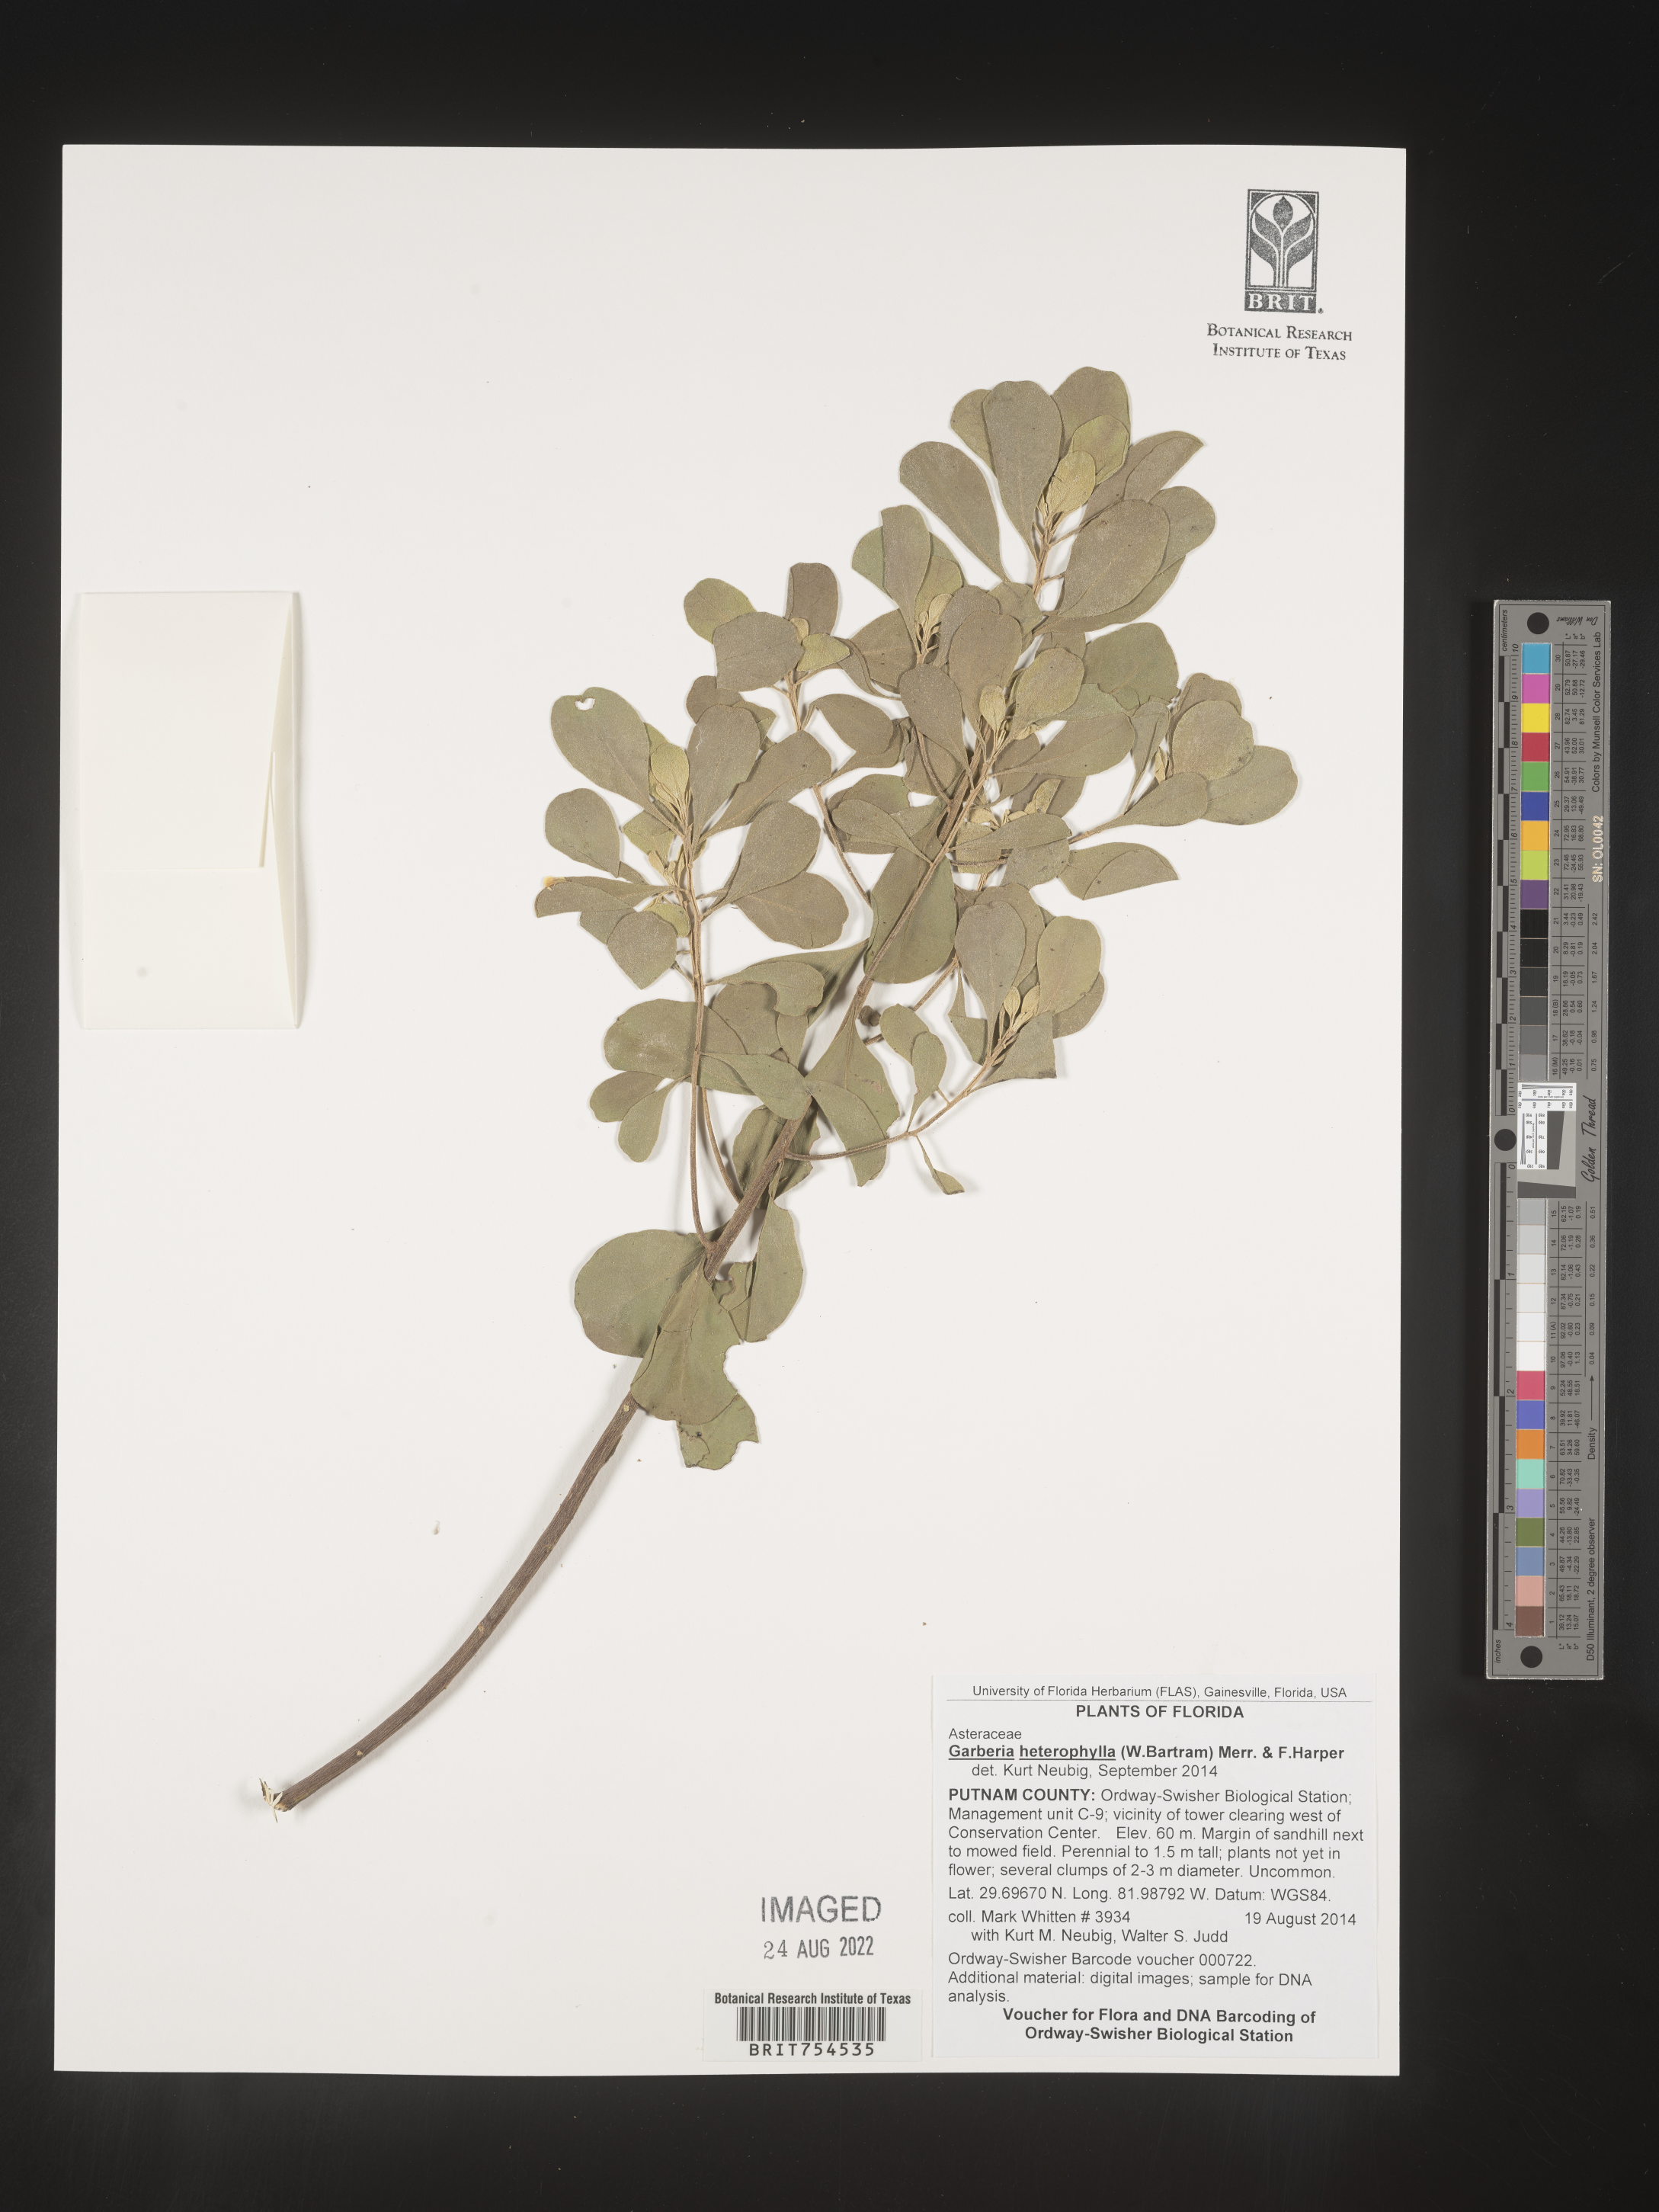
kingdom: Plantae
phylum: Tracheophyta
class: Magnoliopsida
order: Asterales
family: Asteraceae
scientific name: Asteraceae
